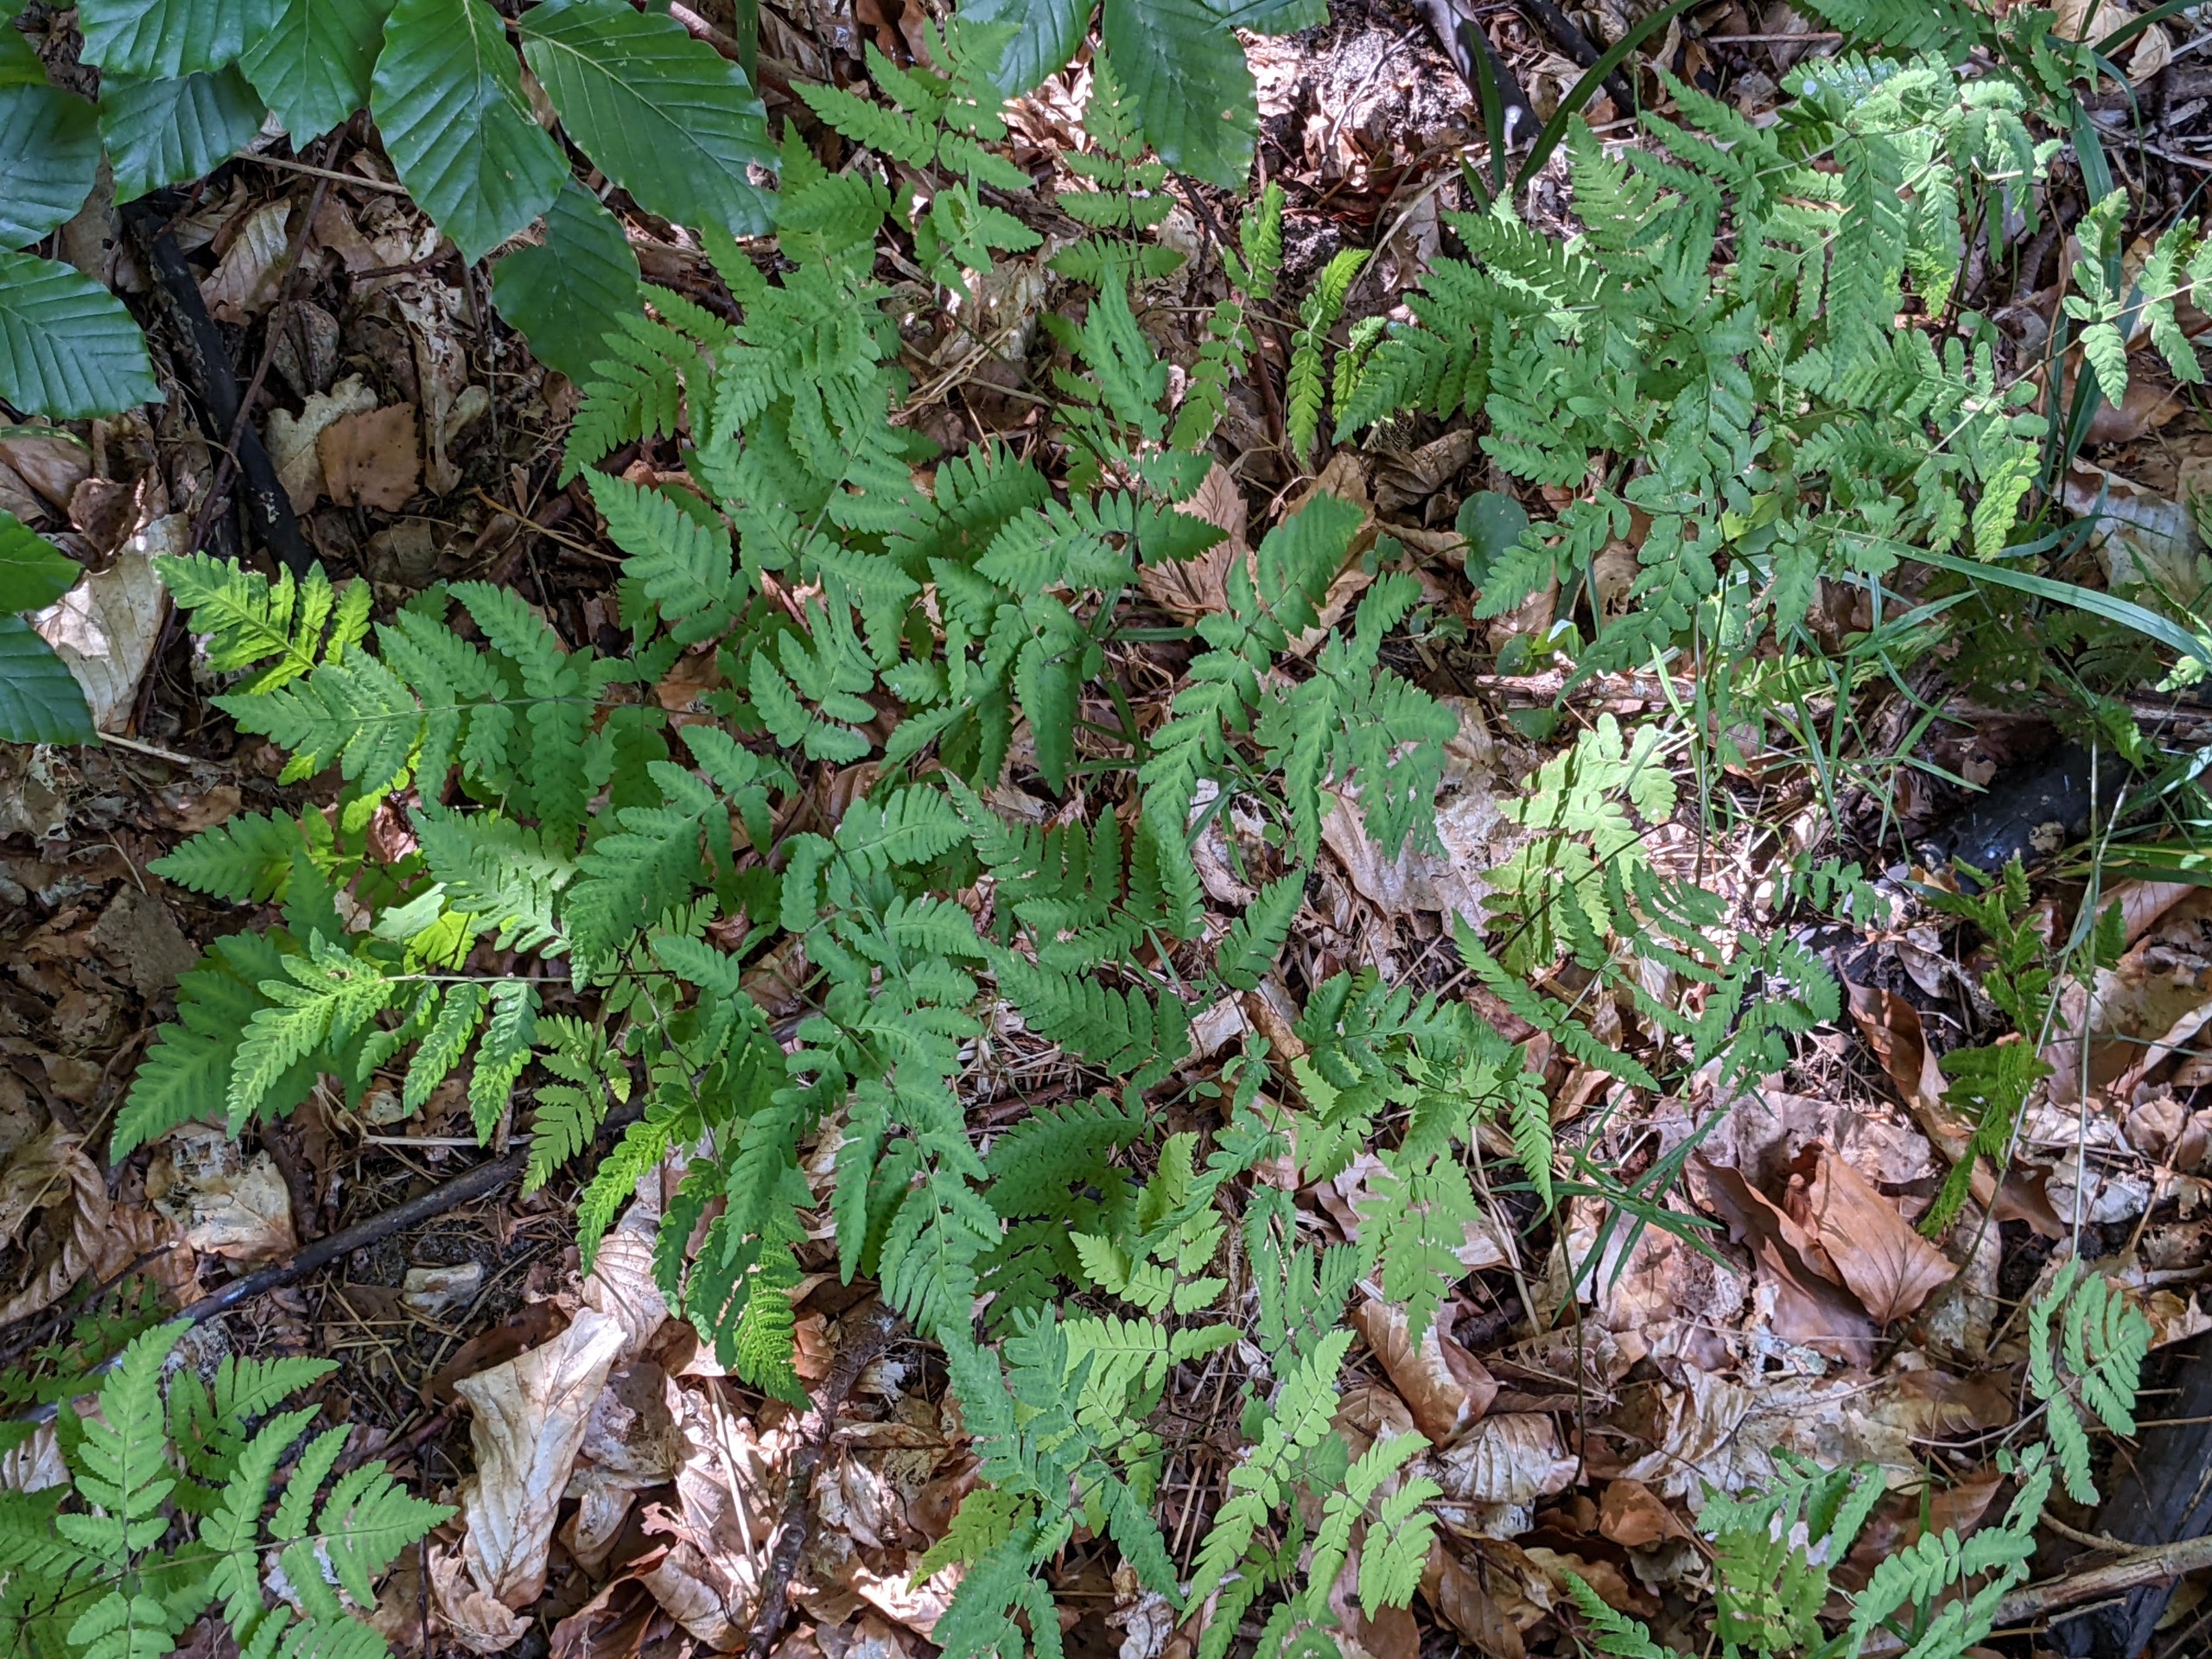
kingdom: Plantae
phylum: Tracheophyta
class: Polypodiopsida
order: Polypodiales
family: Cystopteridaceae
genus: Gymnocarpium
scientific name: Gymnocarpium dryopteris
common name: Tredelt egebregne
